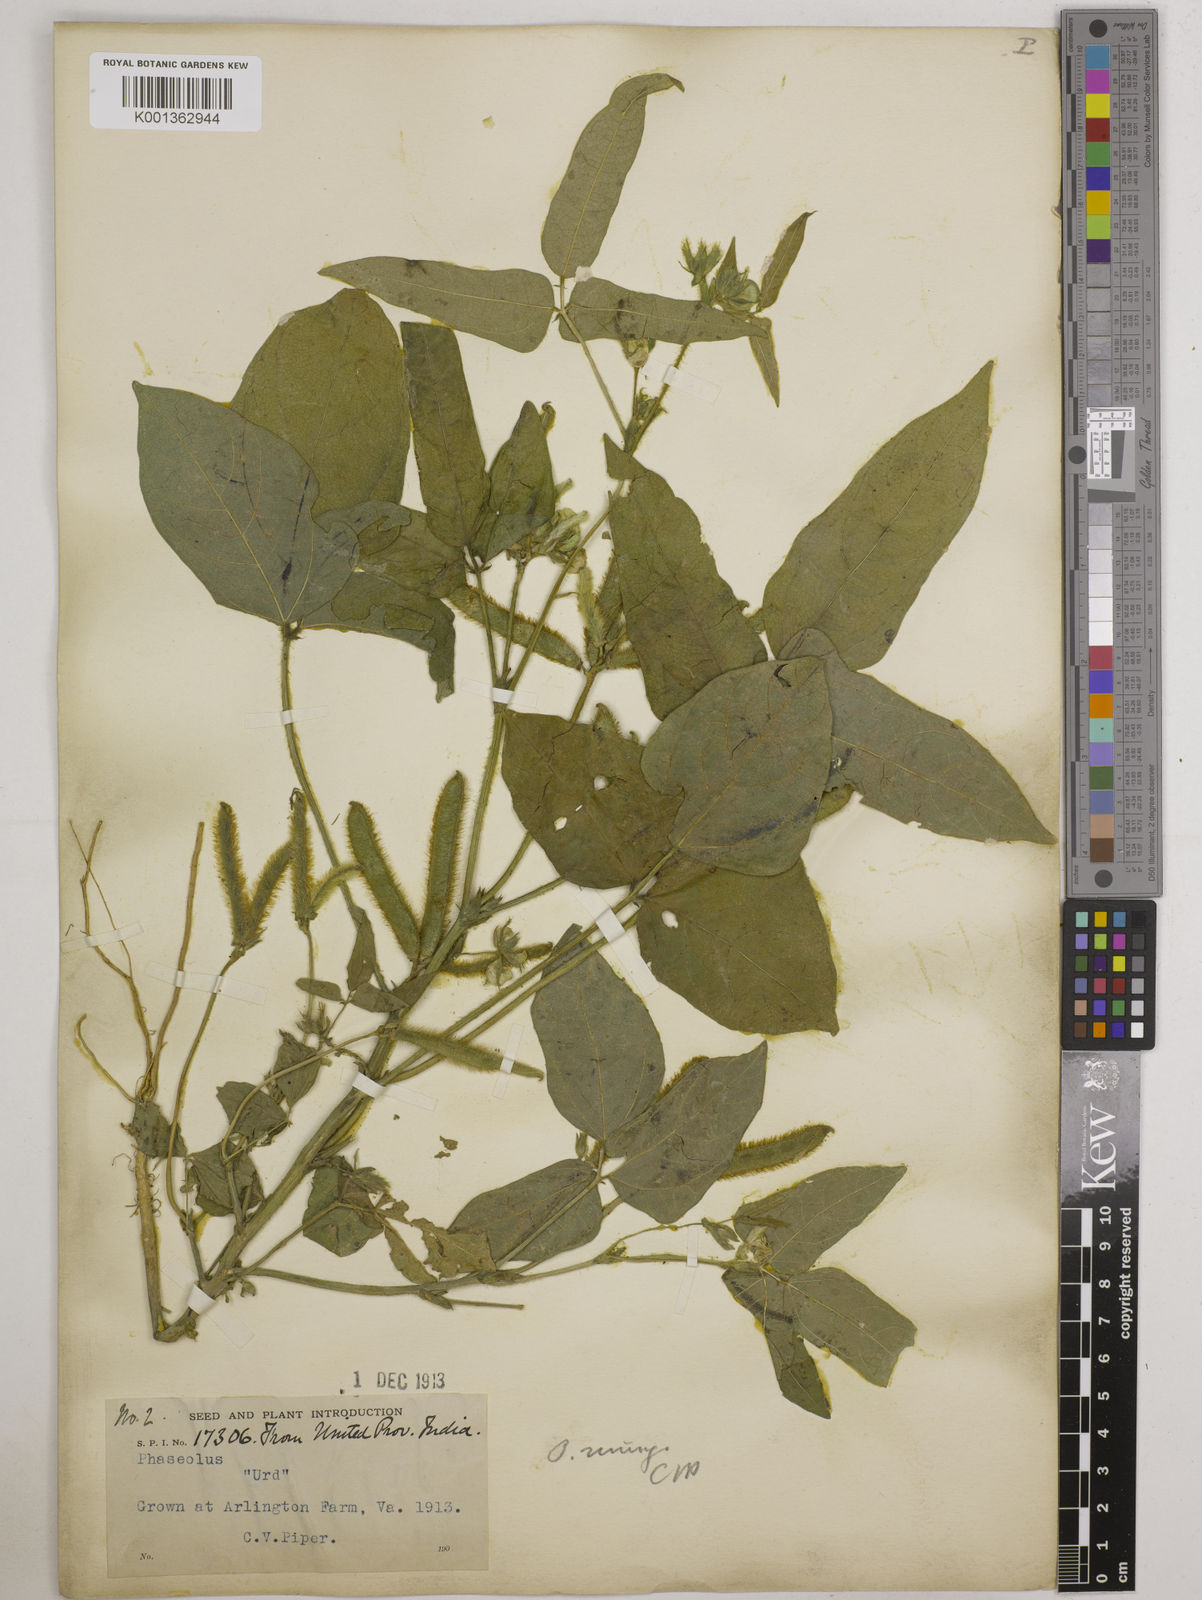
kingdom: Plantae
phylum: Tracheophyta
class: Magnoliopsida
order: Fabales
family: Fabaceae
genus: Vigna
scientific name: Vigna mungo
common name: Black gram
